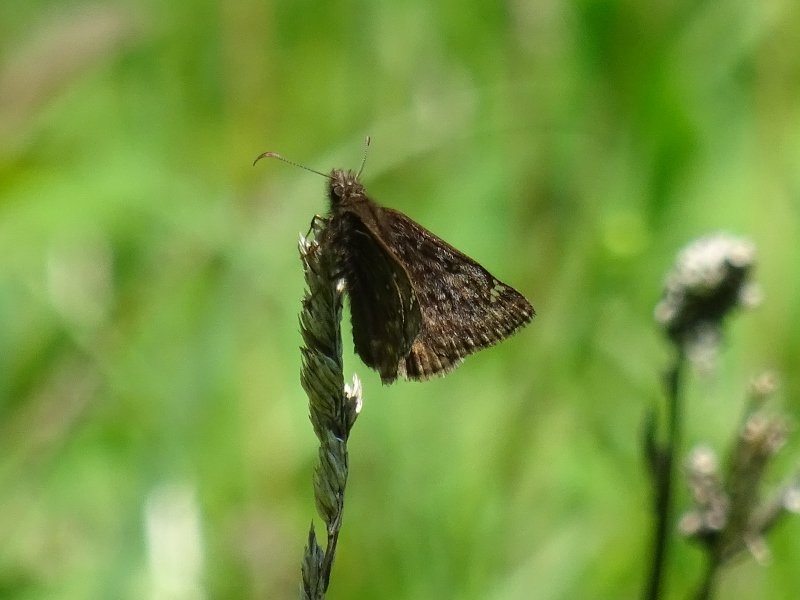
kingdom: Animalia
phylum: Arthropoda
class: Insecta
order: Lepidoptera
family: Hesperiidae
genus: Erynnis
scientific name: Erynnis
